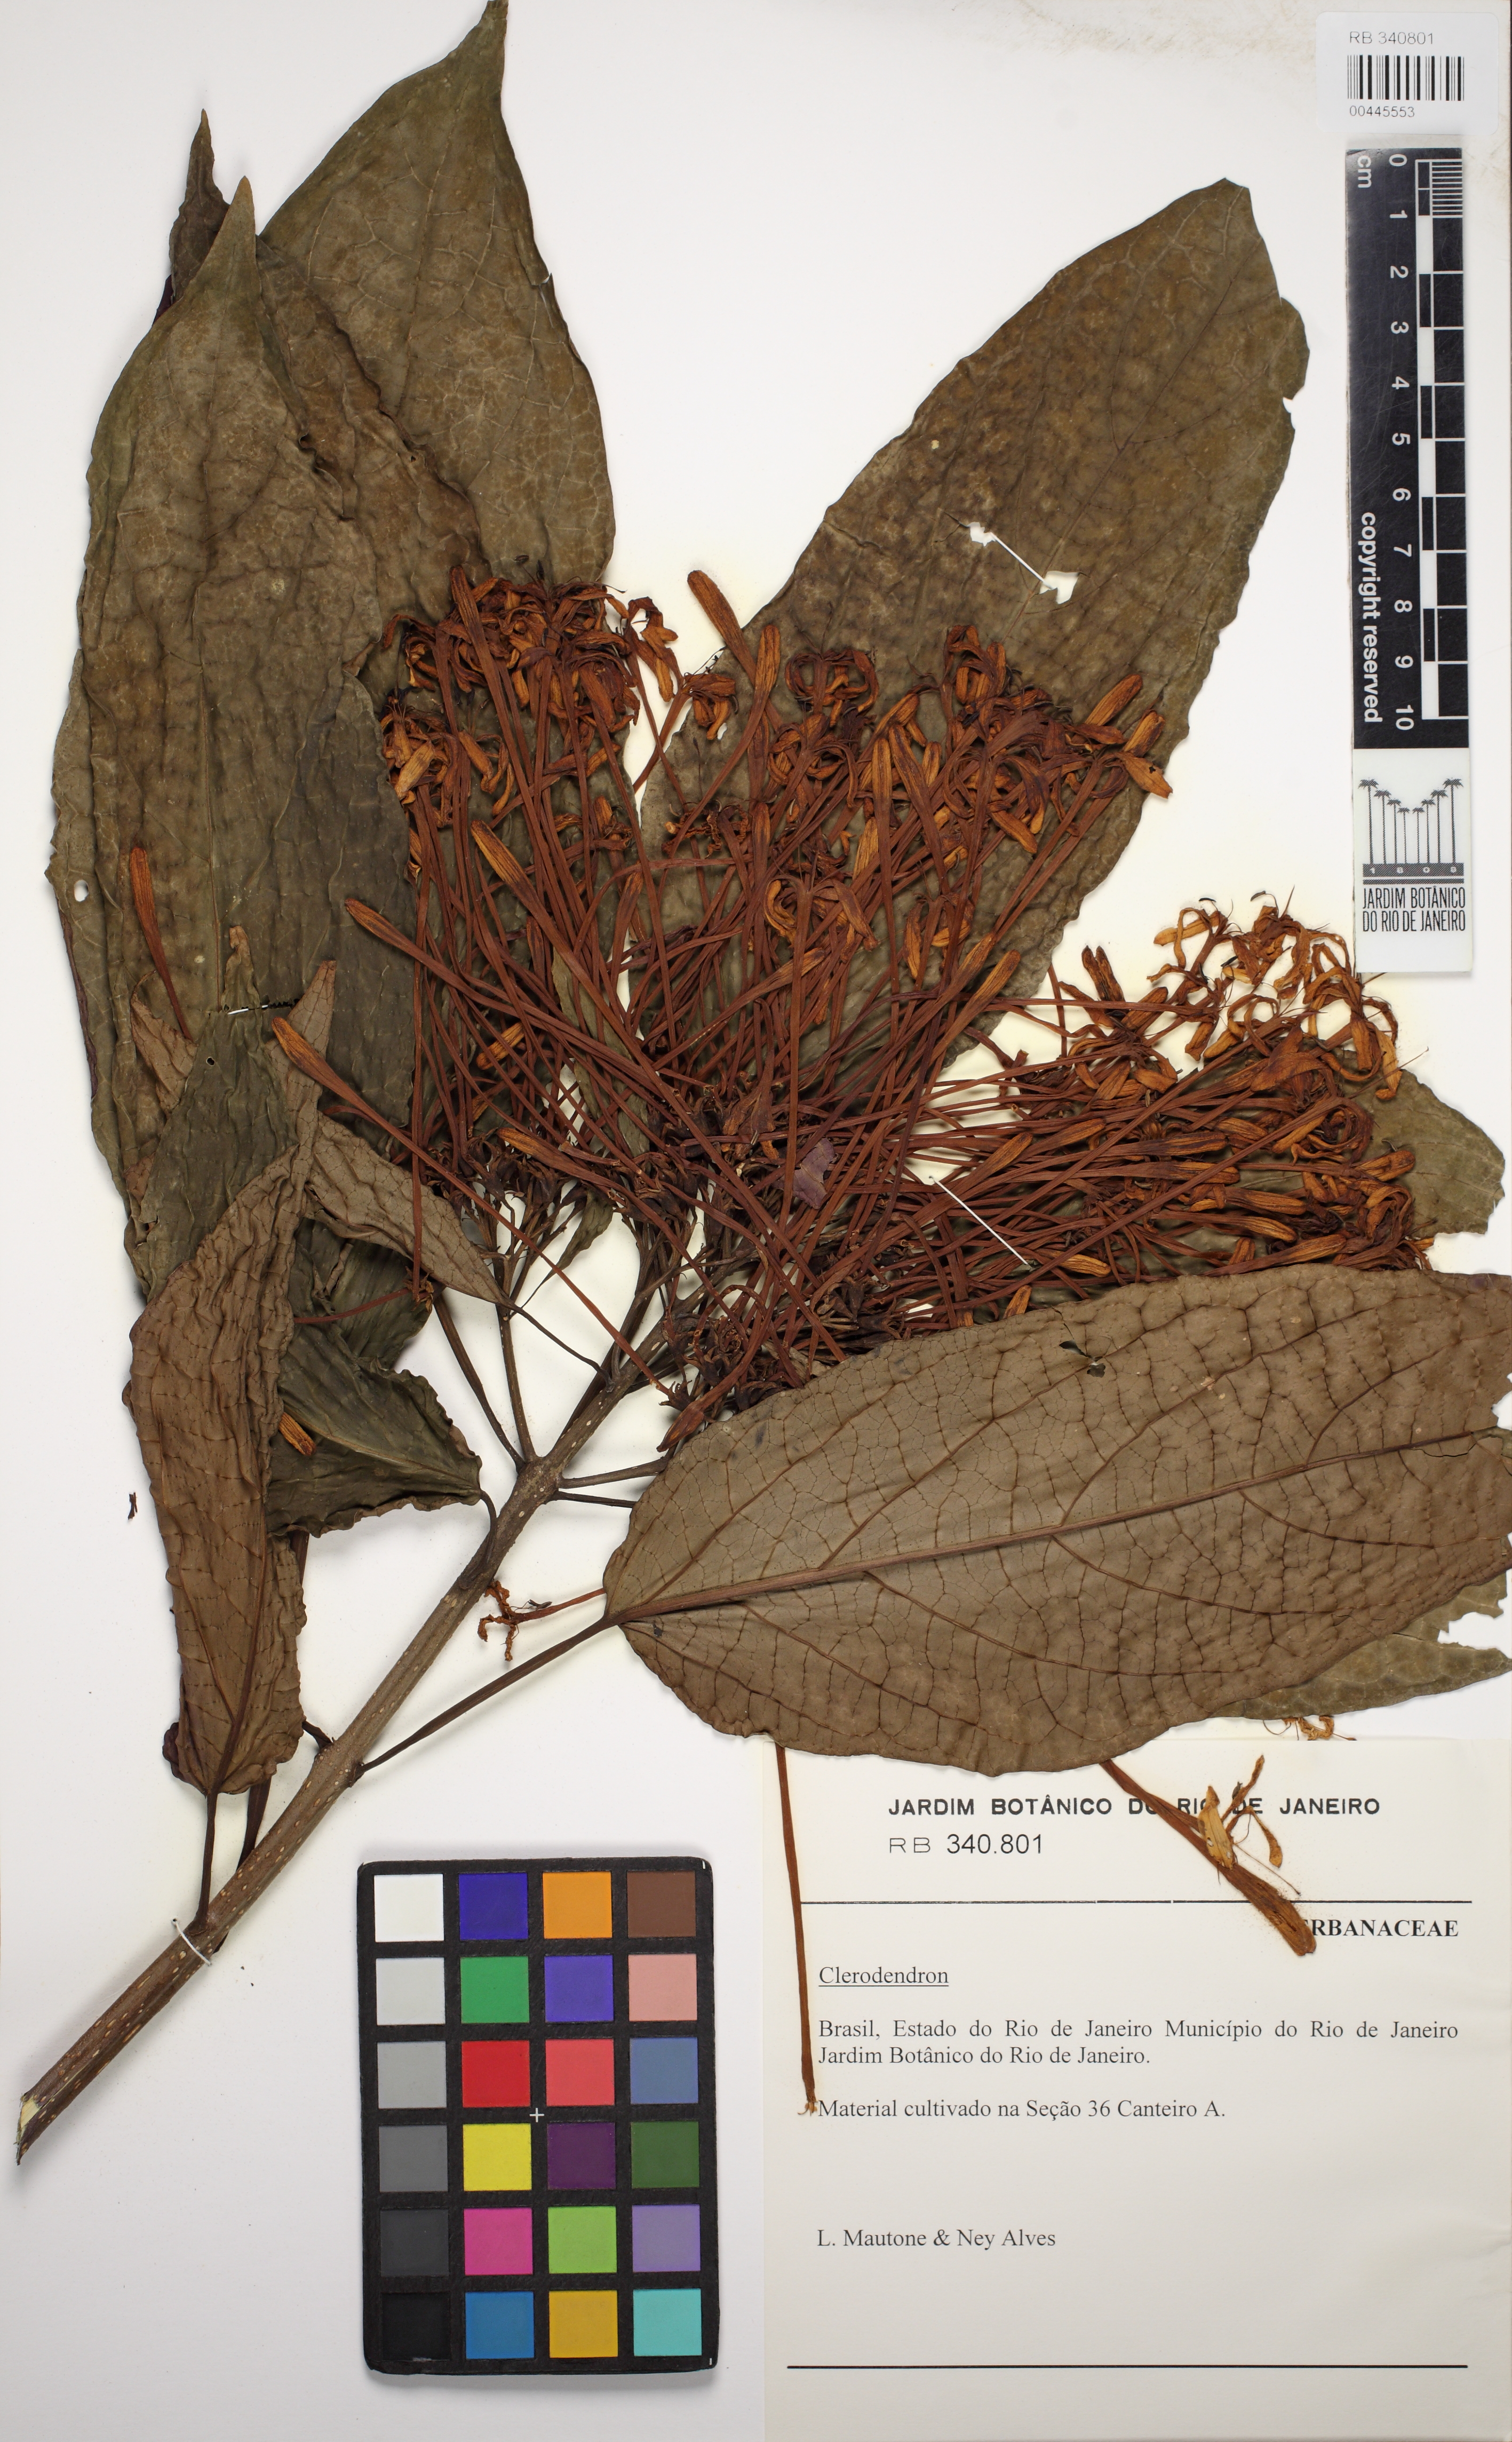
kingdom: Plantae
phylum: Tracheophyta
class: Magnoliopsida
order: Lamiales
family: Lamiaceae
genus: Clerodendrum
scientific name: Clerodendrum
